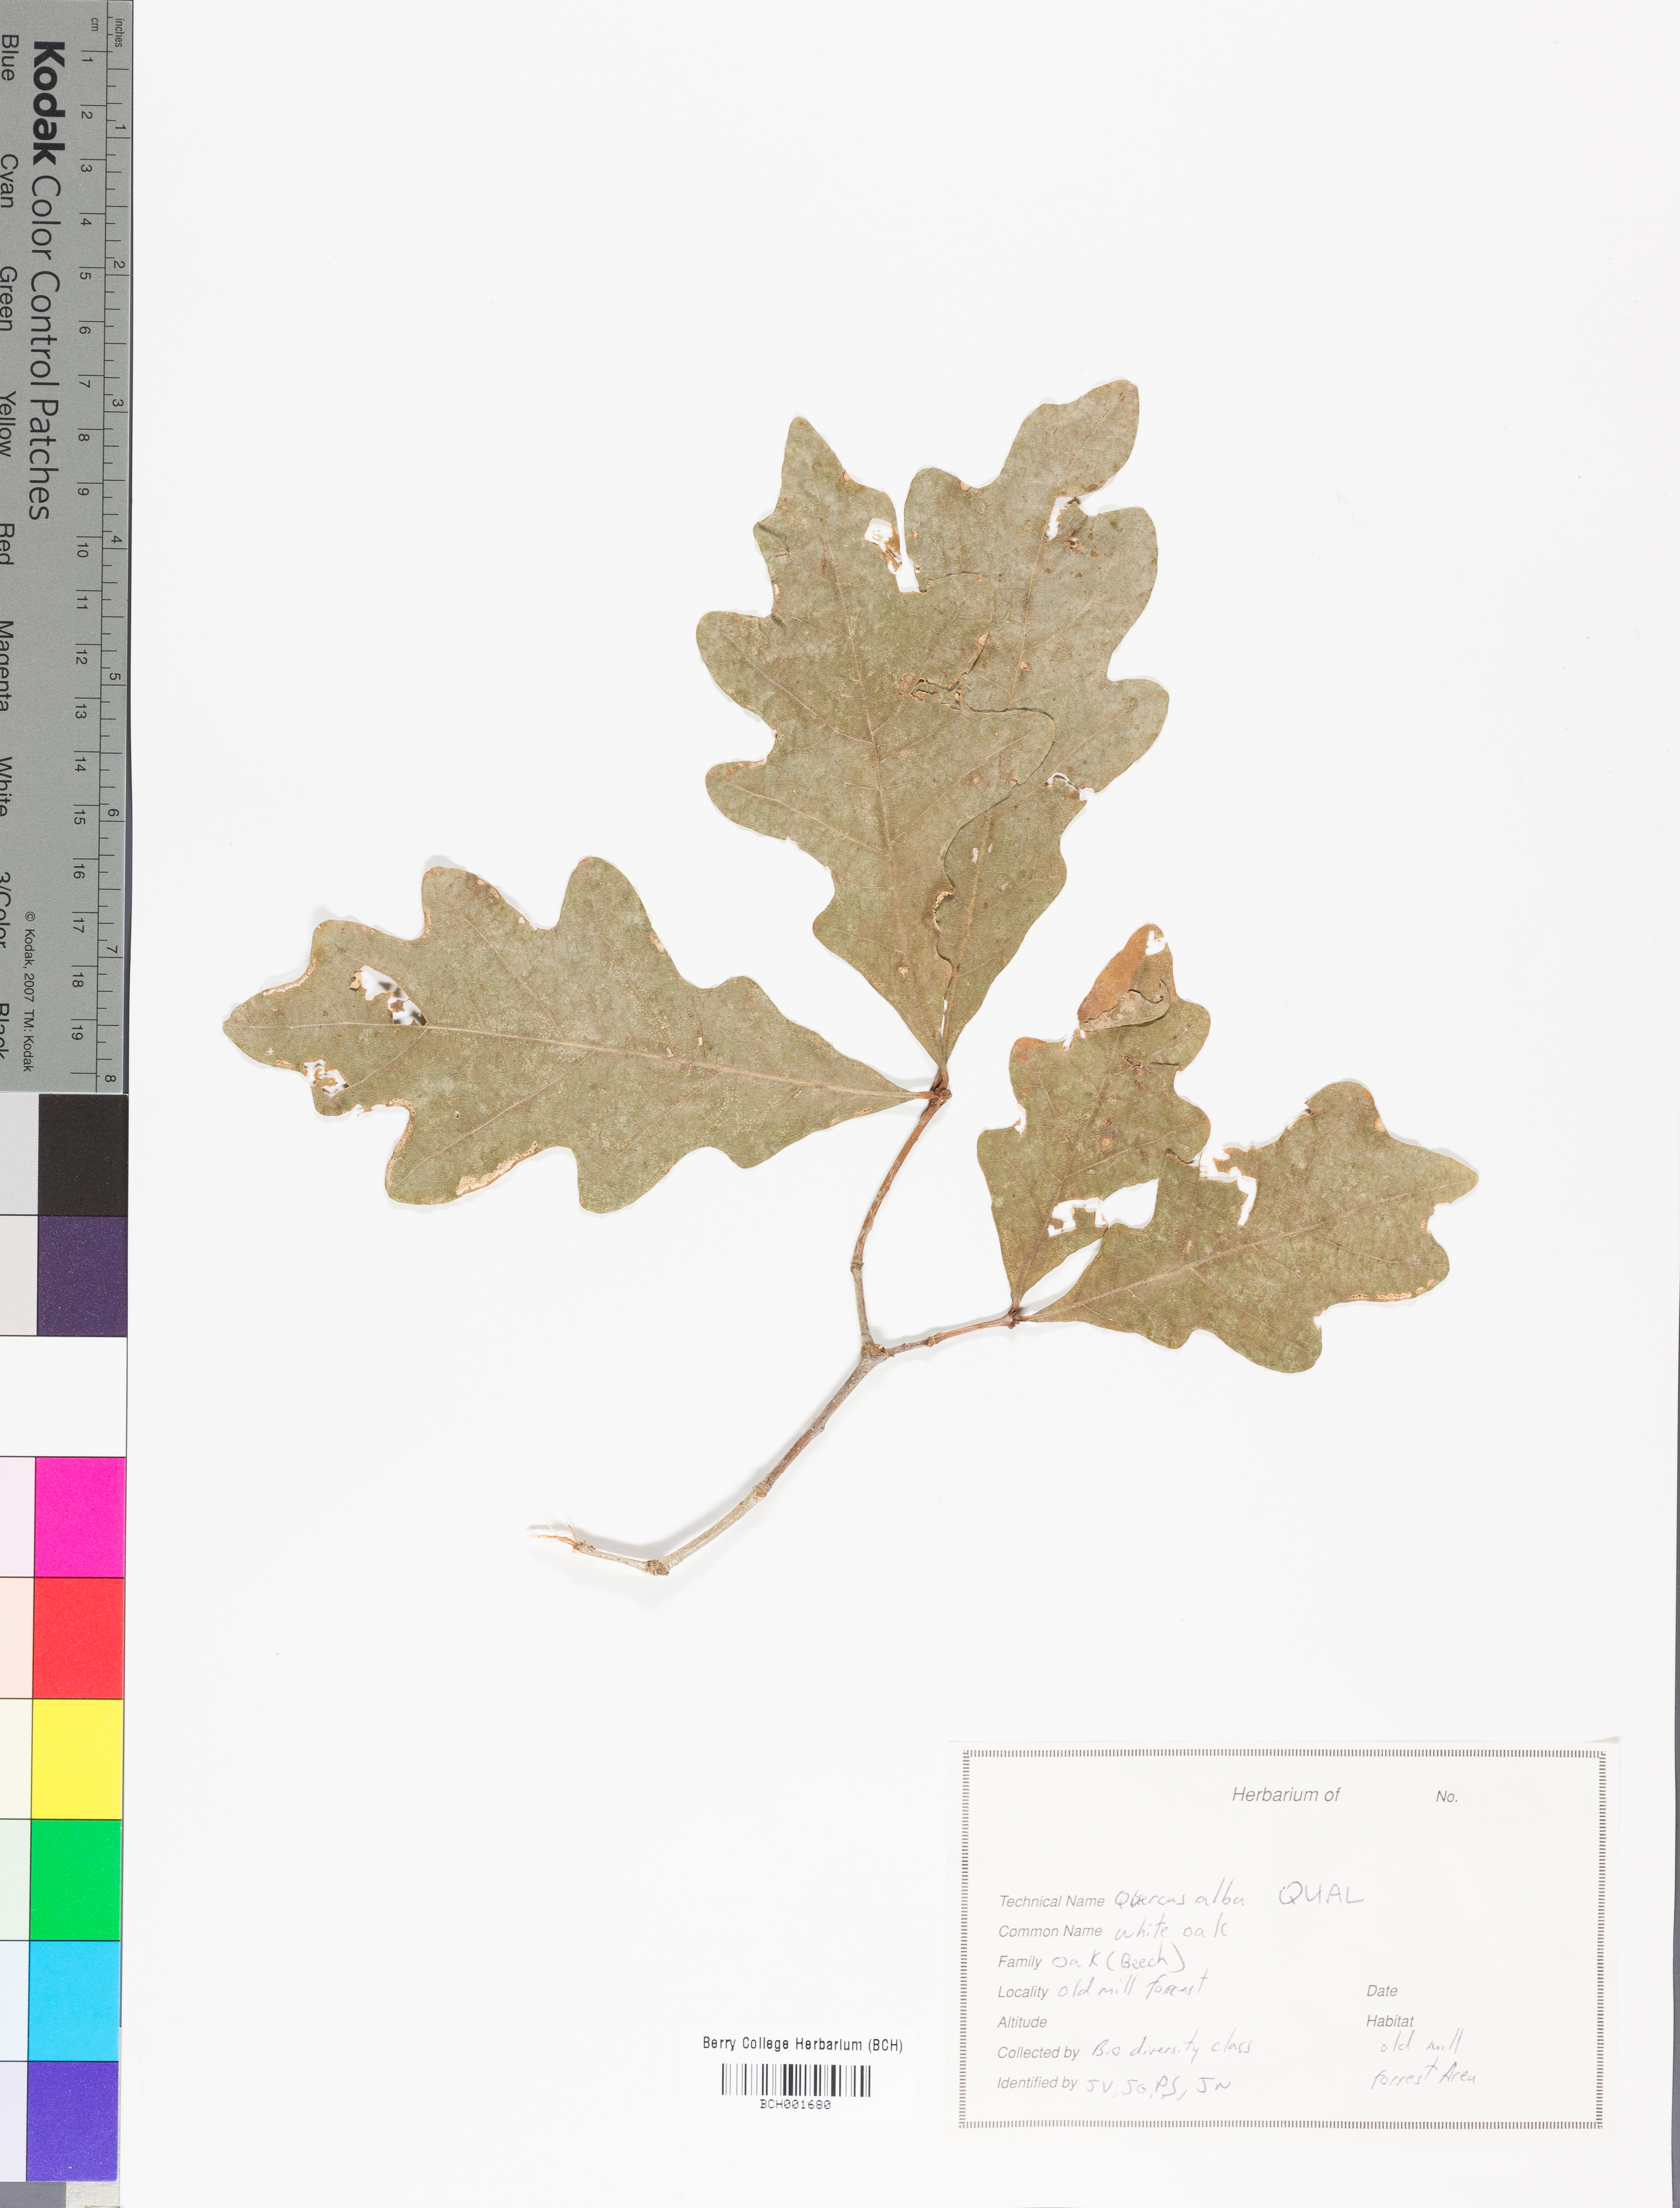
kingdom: Plantae
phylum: Tracheophyta
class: Magnoliopsida
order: Fagales
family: Fagaceae
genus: Quercus
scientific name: Quercus alba
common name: White oak
